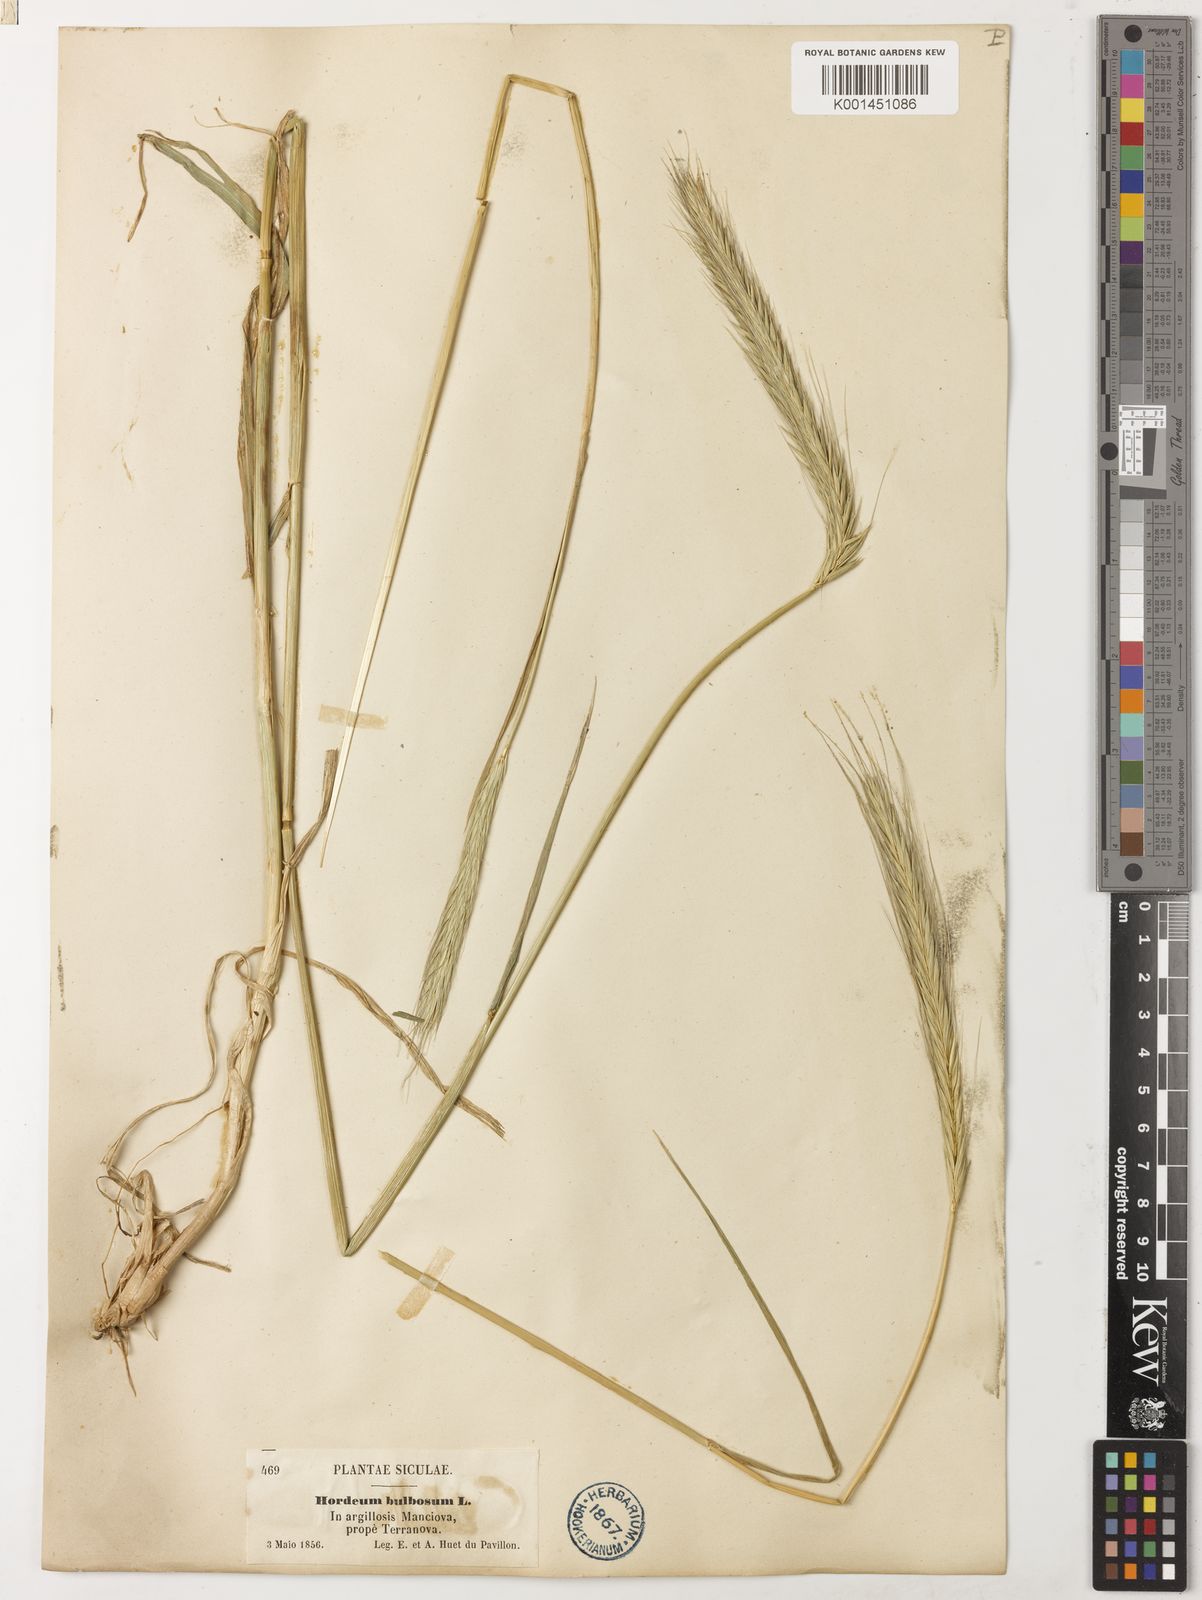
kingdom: Plantae
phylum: Tracheophyta
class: Liliopsida
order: Poales
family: Poaceae
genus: Hordeum
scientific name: Hordeum bulbosum
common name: Bulbous barley
